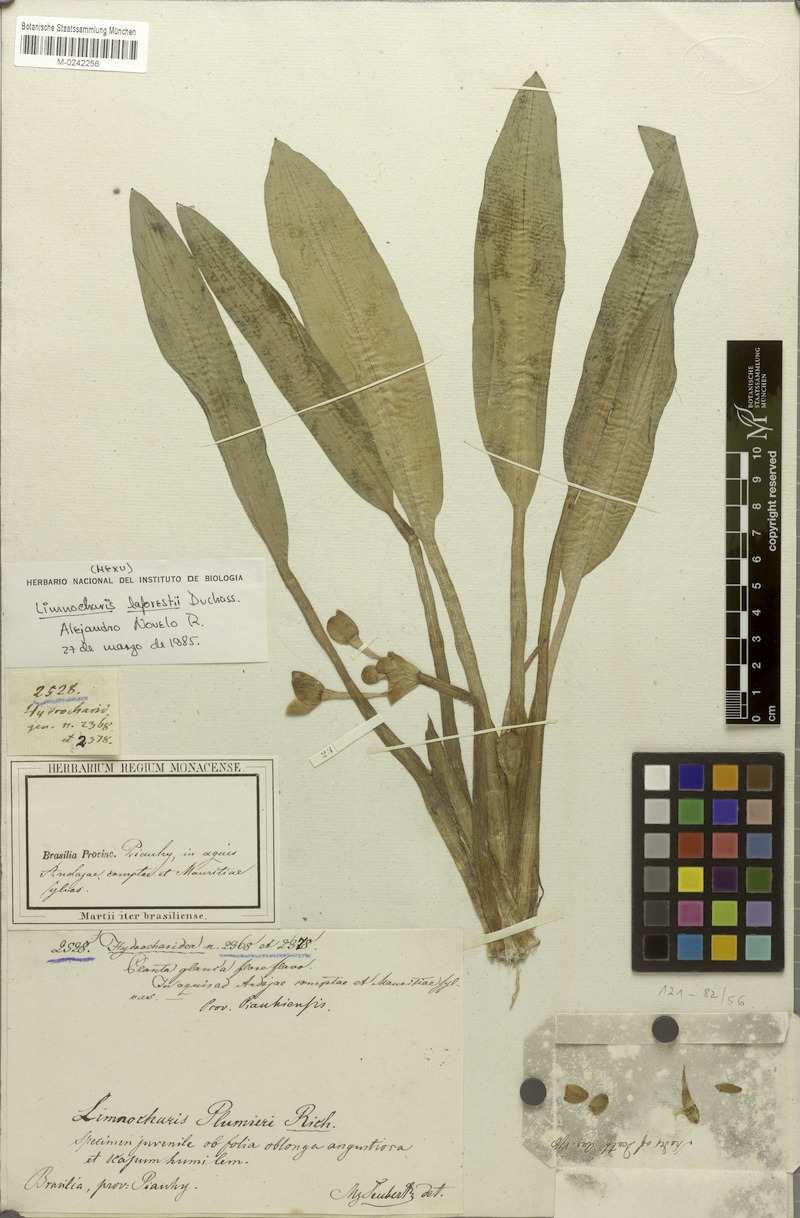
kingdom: Plantae
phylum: Tracheophyta
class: Liliopsida
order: Alismatales
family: Alismataceae
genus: Limnocharis
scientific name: Limnocharis laforestii
